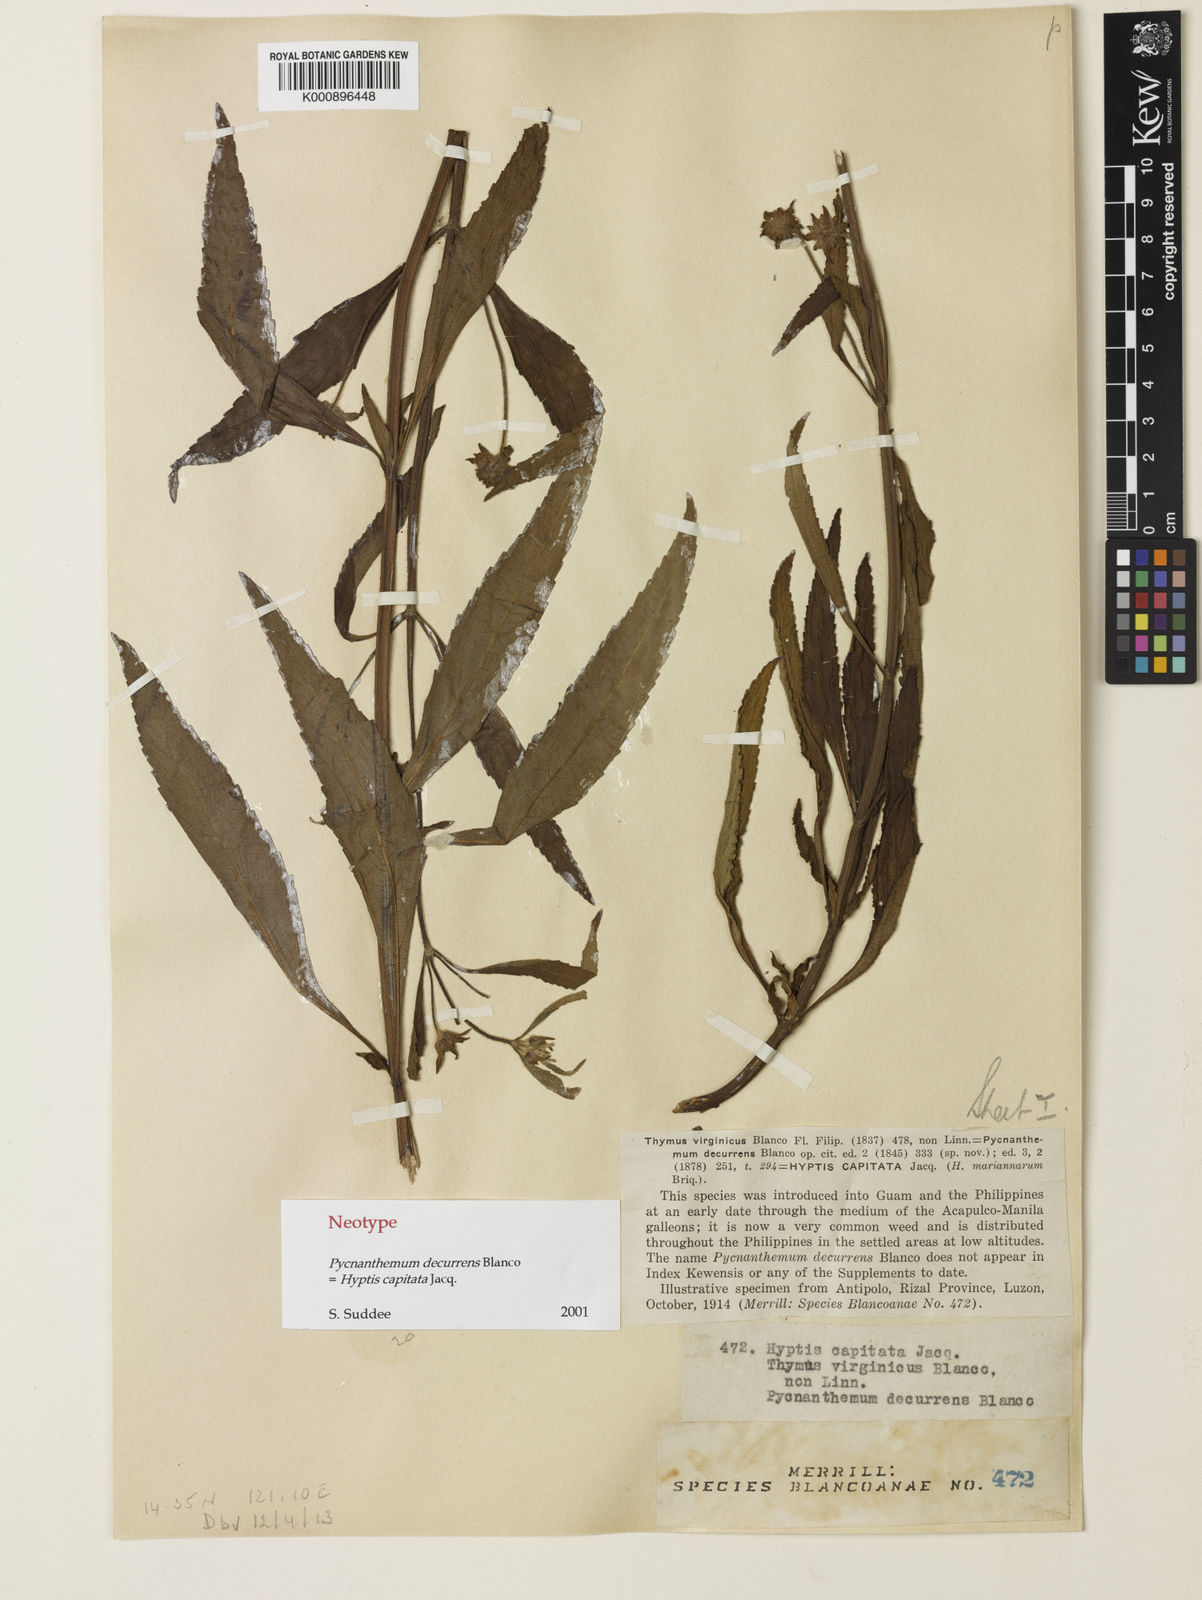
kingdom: Plantae
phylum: Tracheophyta
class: Magnoliopsida
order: Lamiales
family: Lamiaceae
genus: Hyptis
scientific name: Hyptis capitata
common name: False ironwort
